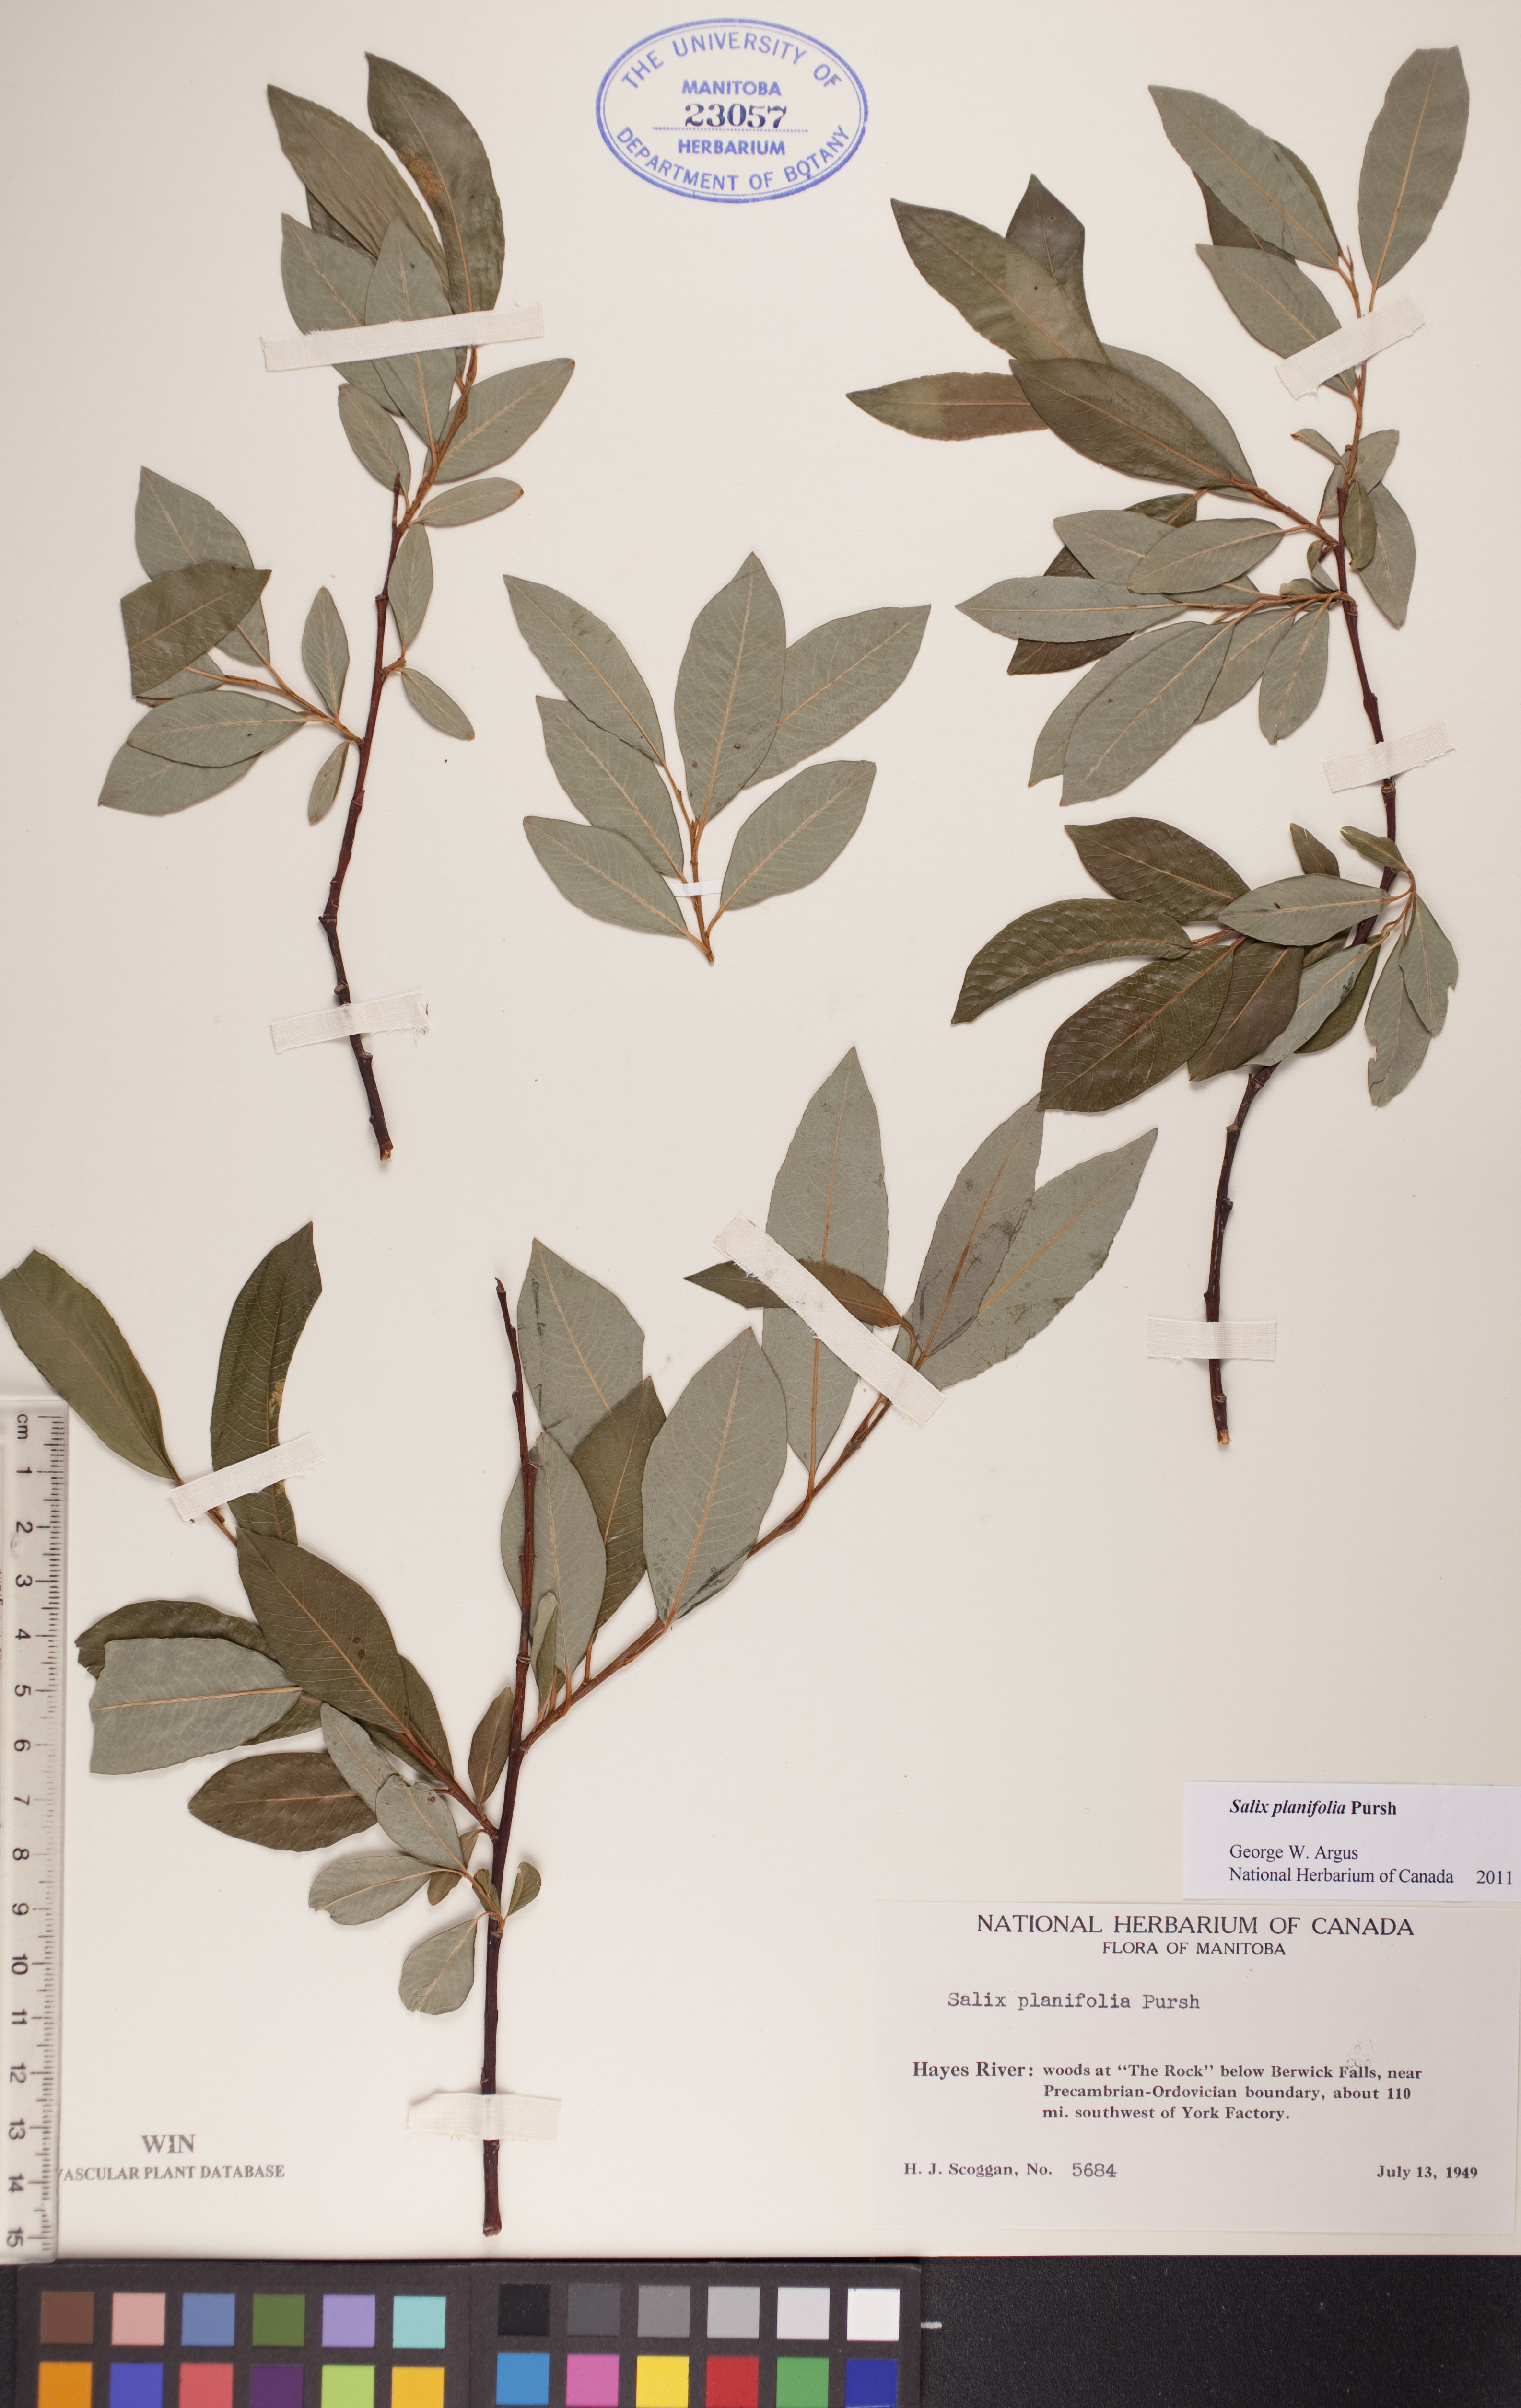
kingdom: Plantae
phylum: Tracheophyta
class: Magnoliopsida
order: Malpighiales
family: Salicaceae
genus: Salix
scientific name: Salix planifolia
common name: Mountain willow
